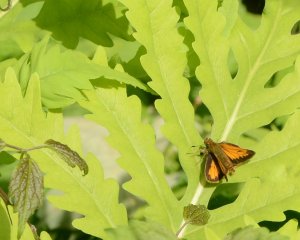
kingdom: Animalia
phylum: Arthropoda
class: Insecta
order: Lepidoptera
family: Hesperiidae
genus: Lon
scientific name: Lon hobomok
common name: Hobomok Skipper
